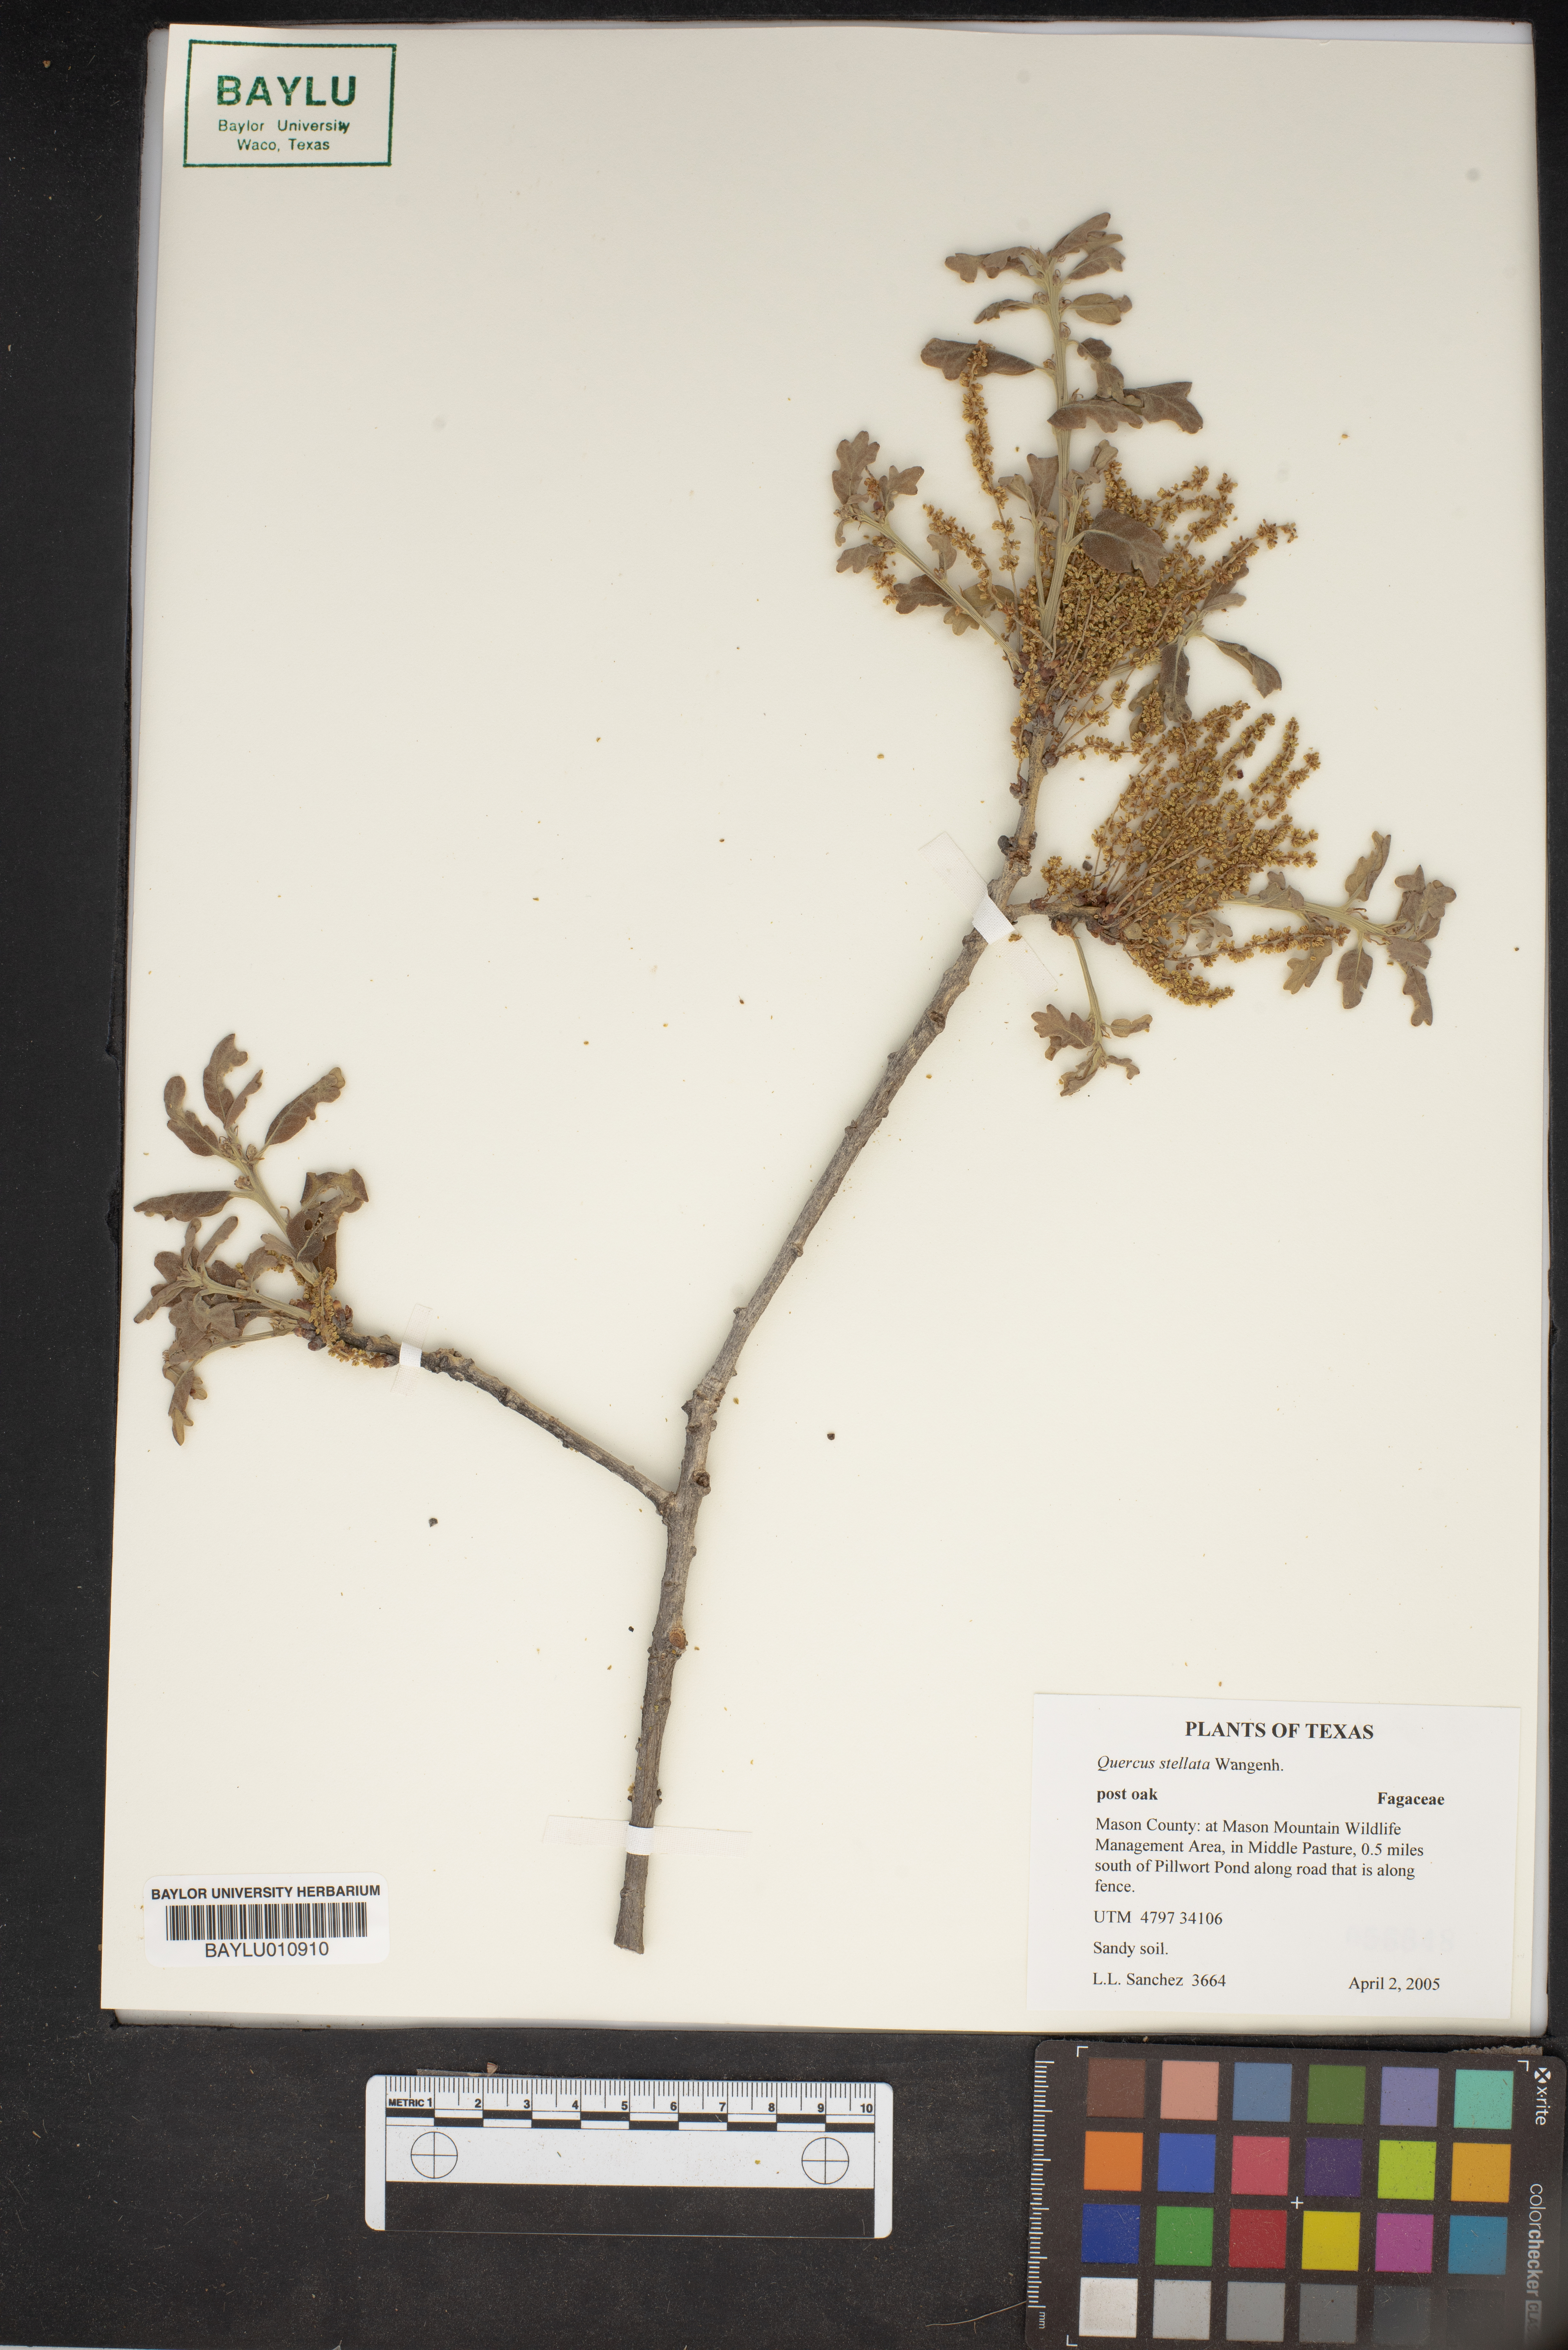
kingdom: Plantae
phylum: Tracheophyta
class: Magnoliopsida
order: Fagales
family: Fagaceae
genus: Quercus
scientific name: Quercus stellata
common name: Post oak
